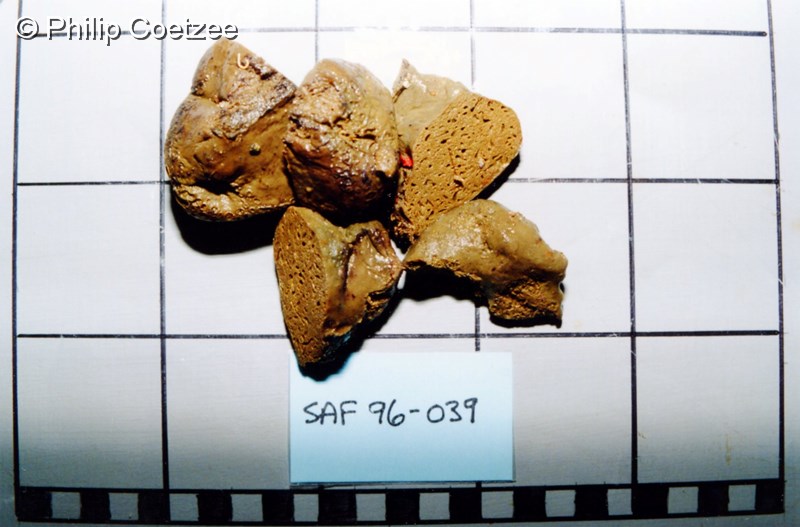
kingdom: Animalia
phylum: Porifera
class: Demospongiae
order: Poecilosclerida
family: Latrunculiidae
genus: Latrunculia
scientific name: Latrunculia
